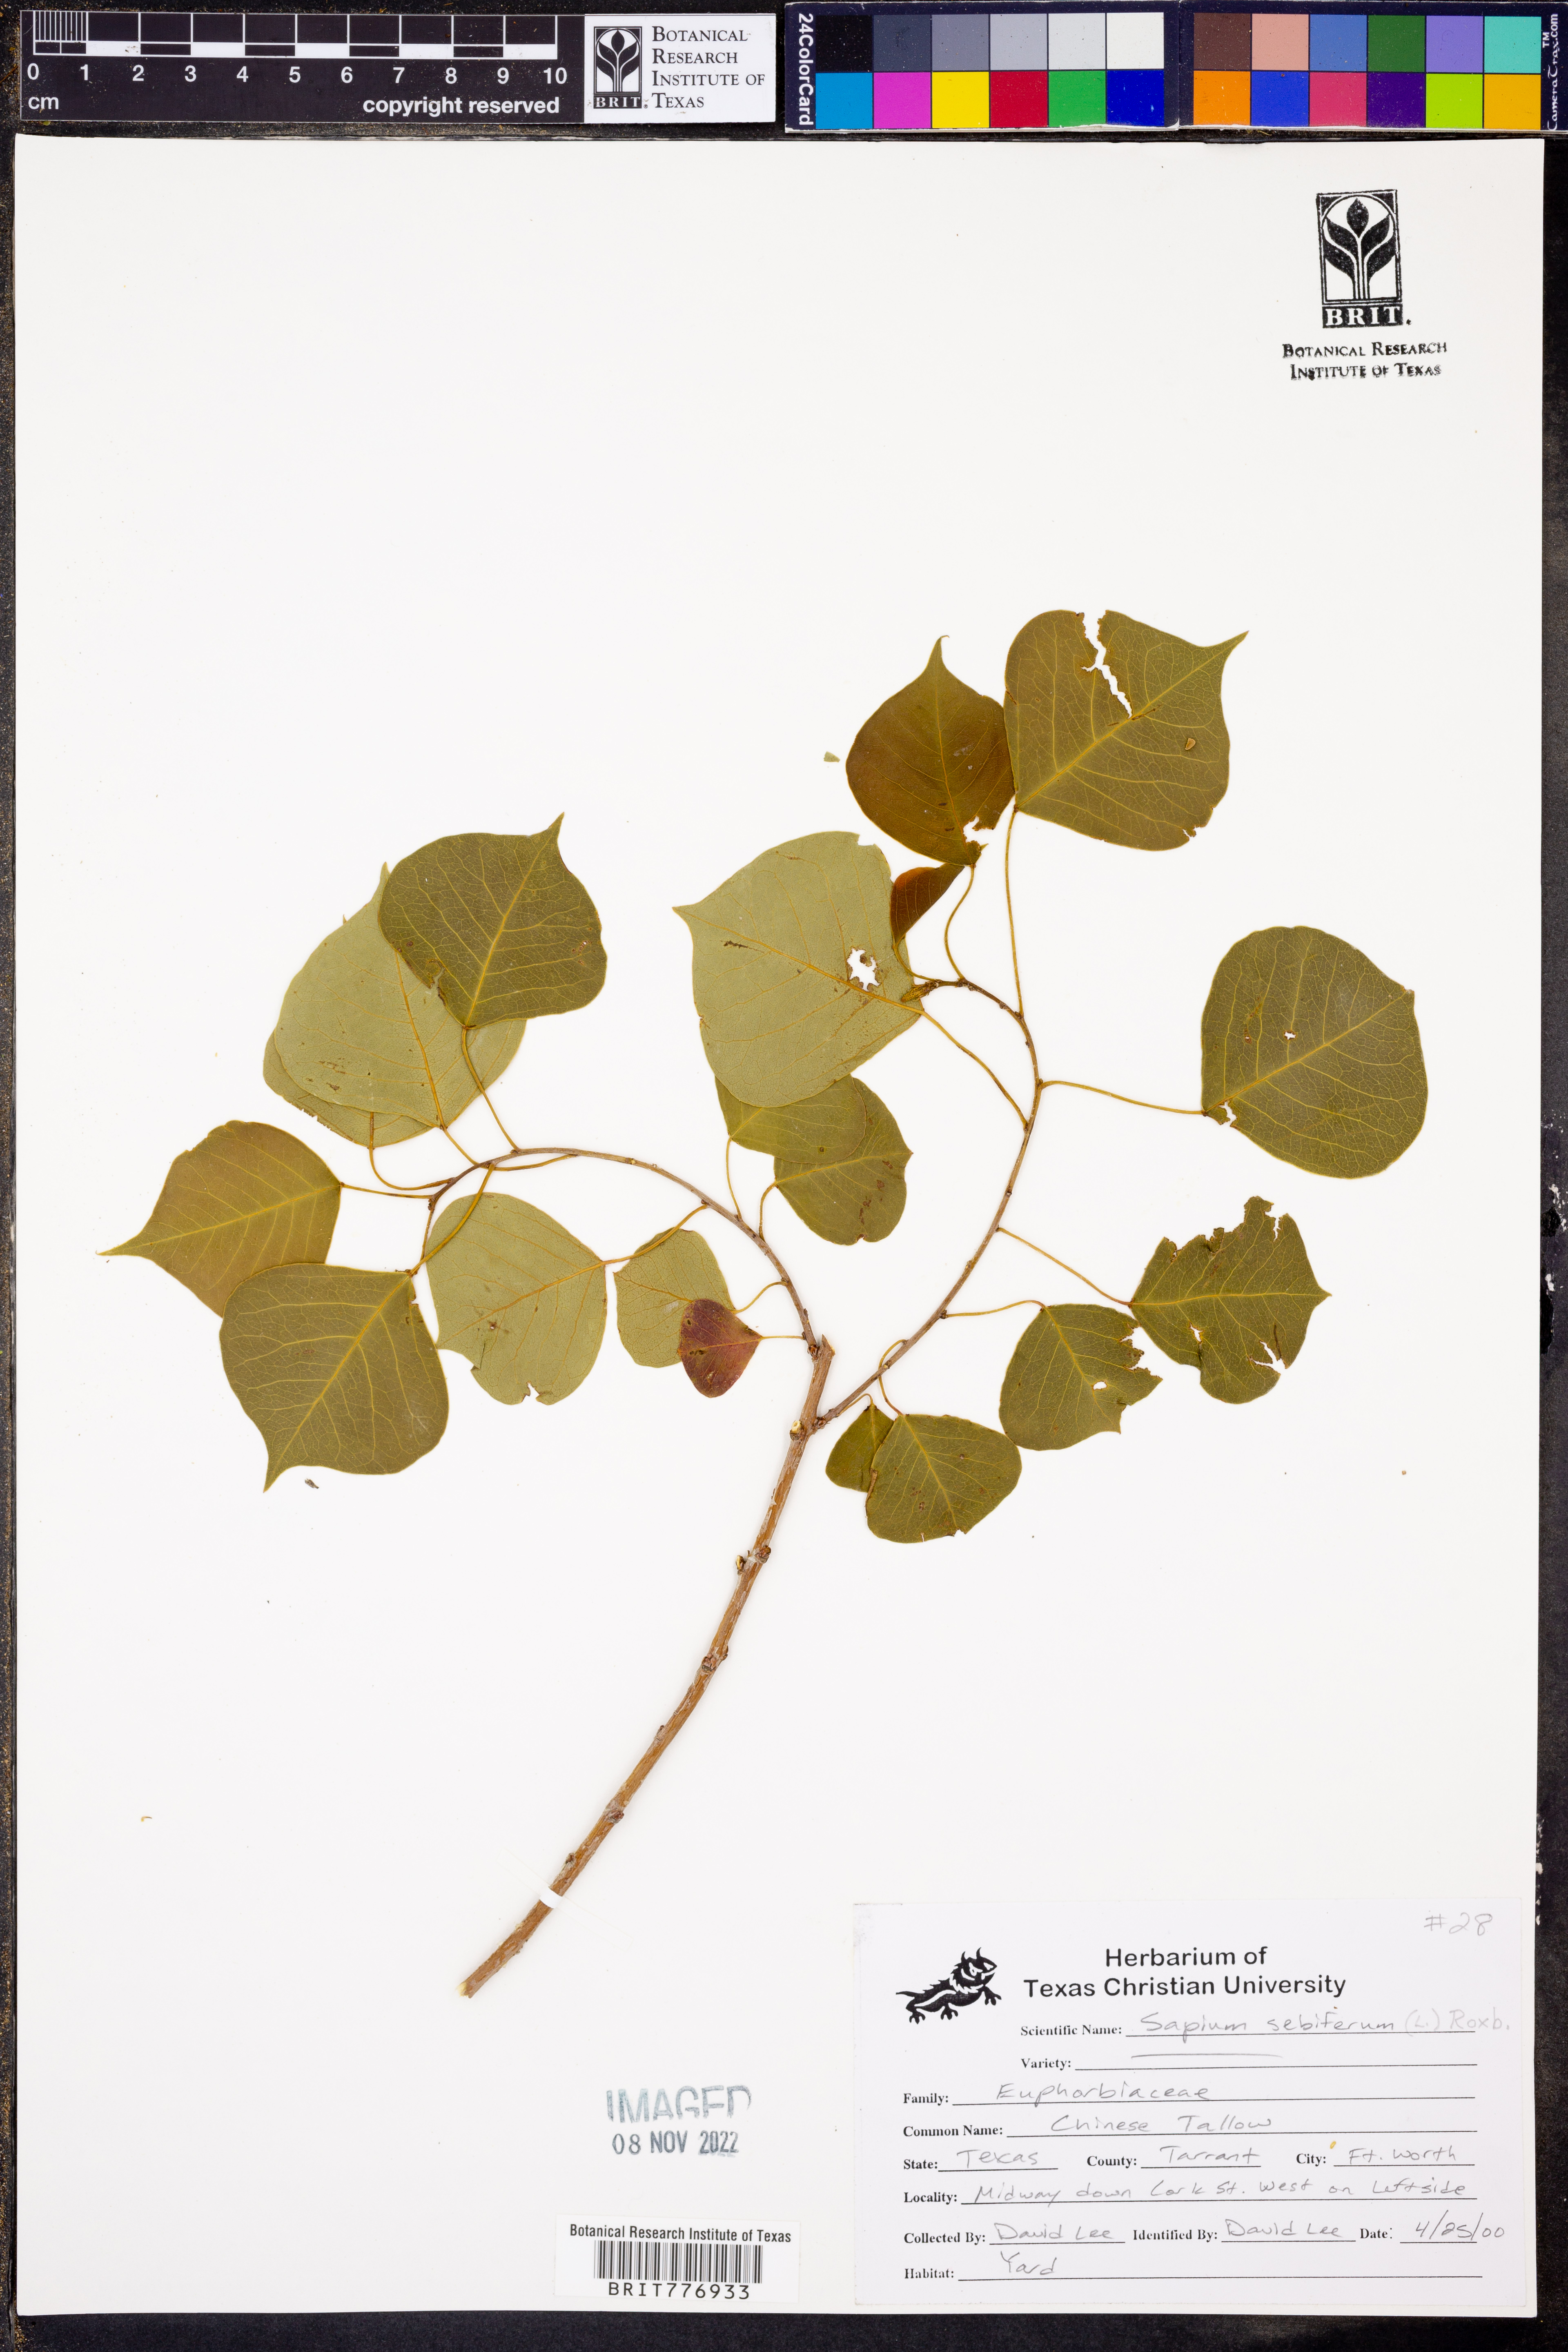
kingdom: Plantae
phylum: Tracheophyta
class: Magnoliopsida
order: Malpighiales
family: Euphorbiaceae
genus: Triadica
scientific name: Triadica sebifera
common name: Chinese tallow
